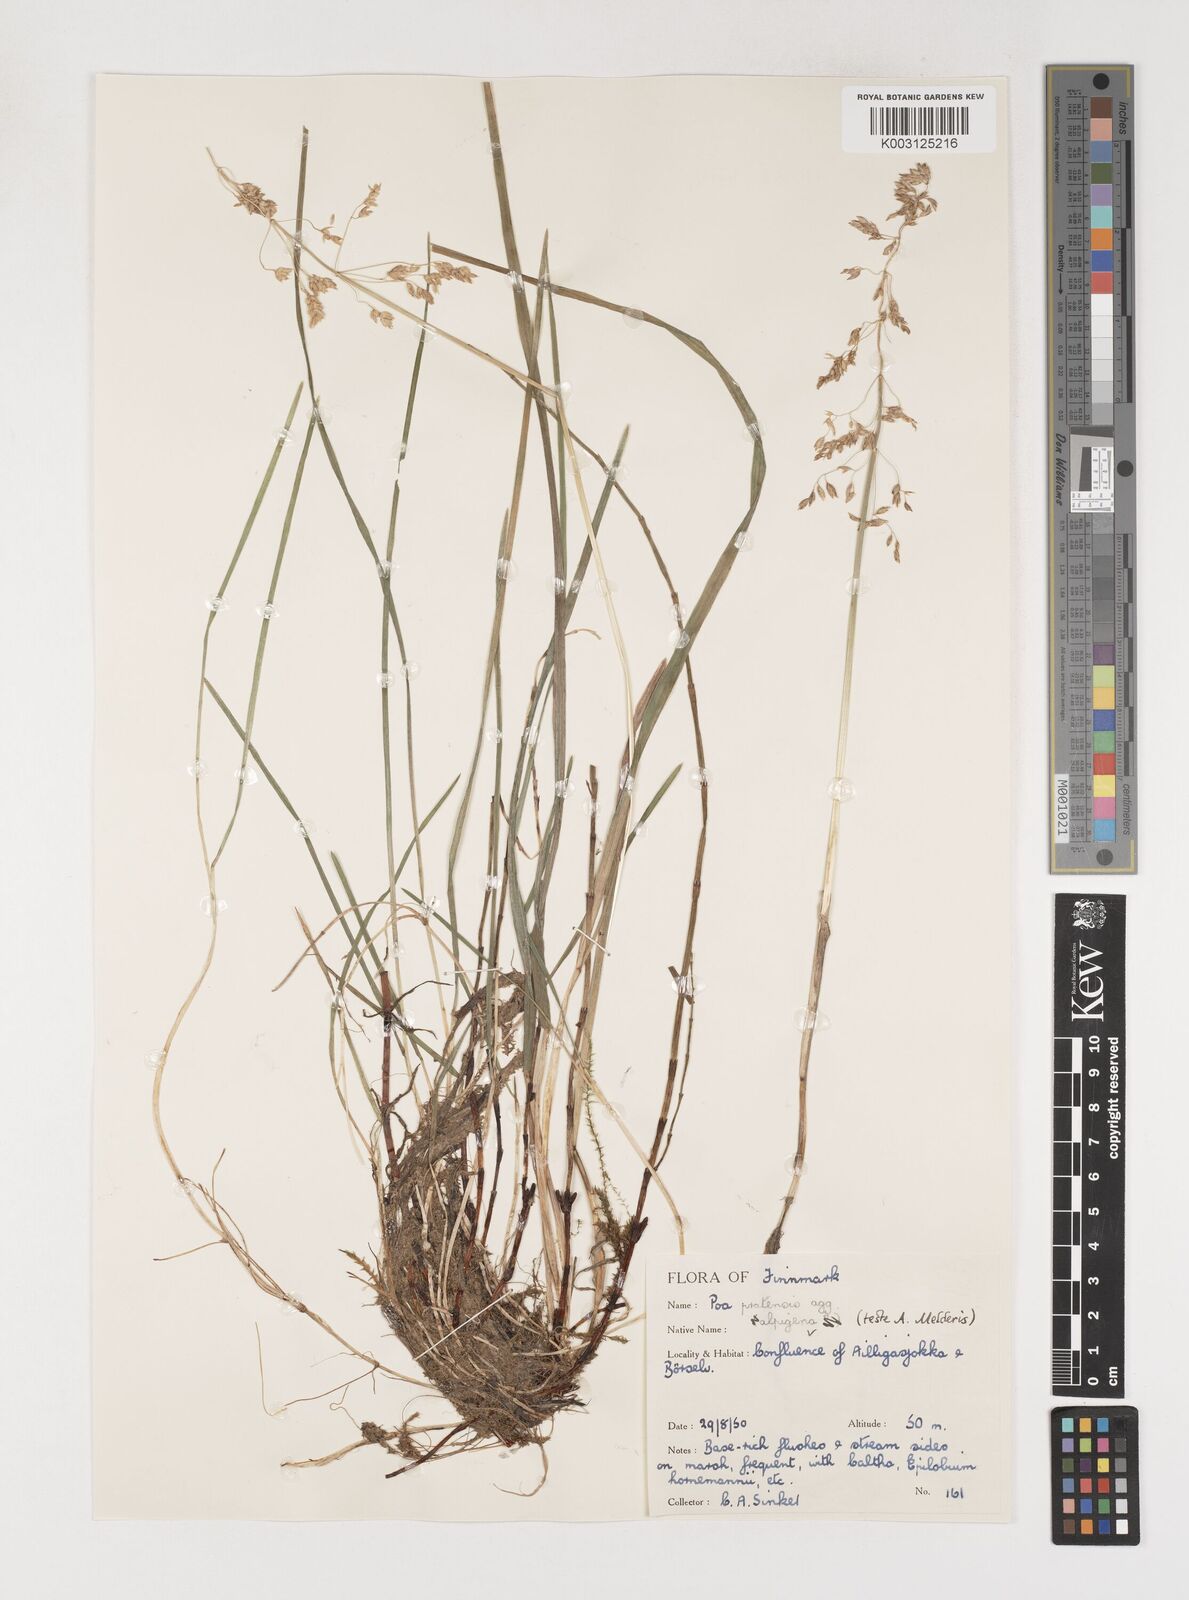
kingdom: Plantae
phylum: Tracheophyta
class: Liliopsida
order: Poales
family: Poaceae
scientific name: Poaceae
